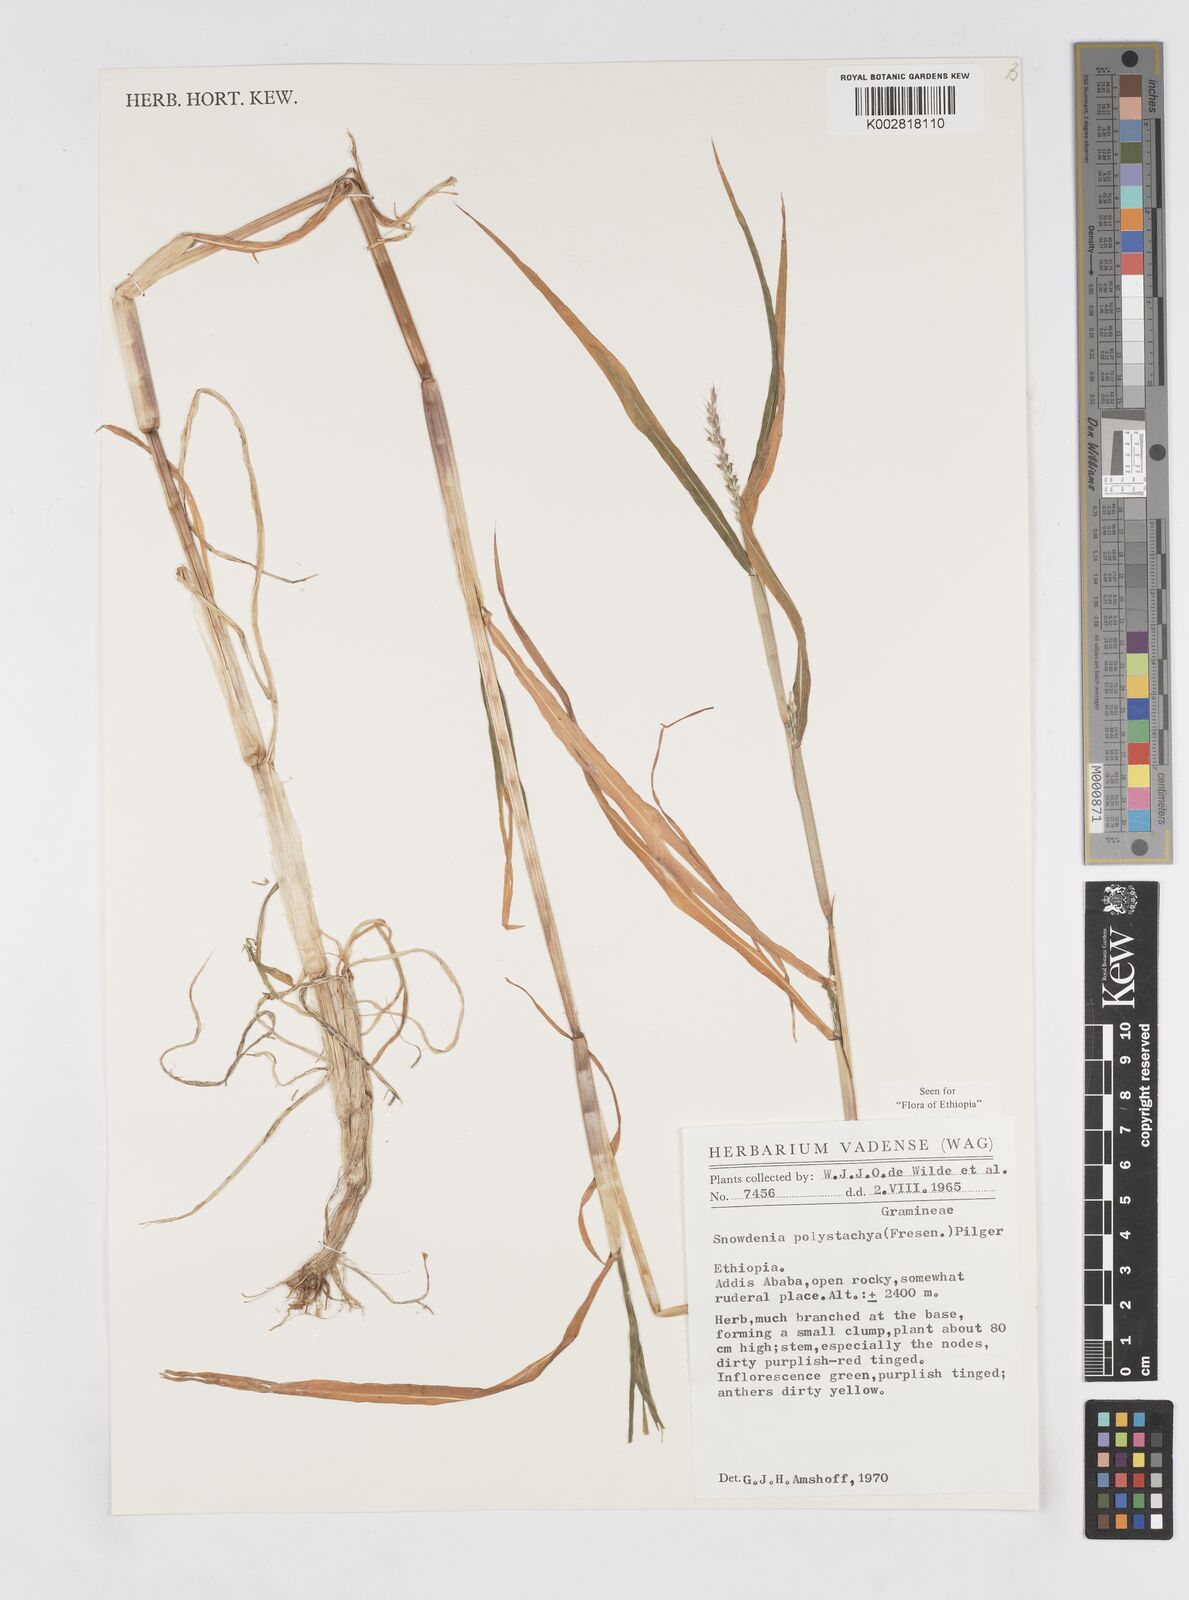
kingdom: Plantae
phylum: Tracheophyta
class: Liliopsida
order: Poales
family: Poaceae
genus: Snowdenia
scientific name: Snowdenia polystachya
